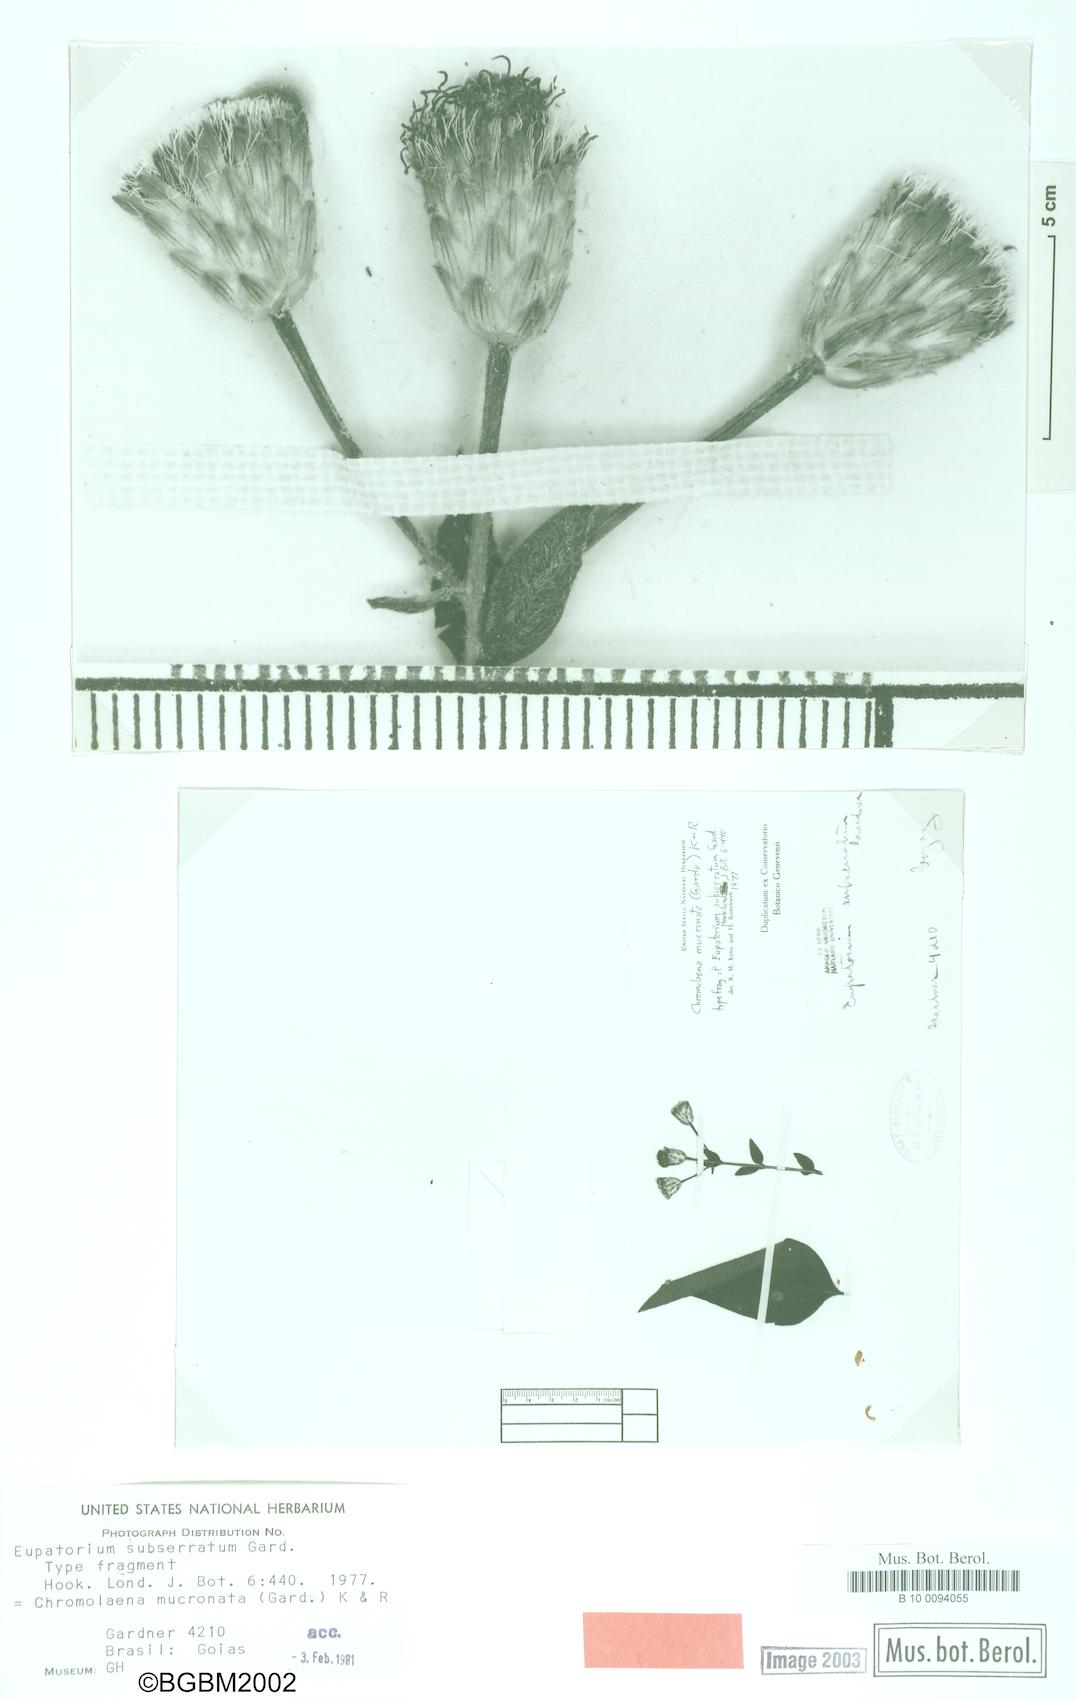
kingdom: Plantae
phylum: Tracheophyta
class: Magnoliopsida
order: Asterales
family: Asteraceae
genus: Chromolaena
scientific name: Chromolaena mucronata
